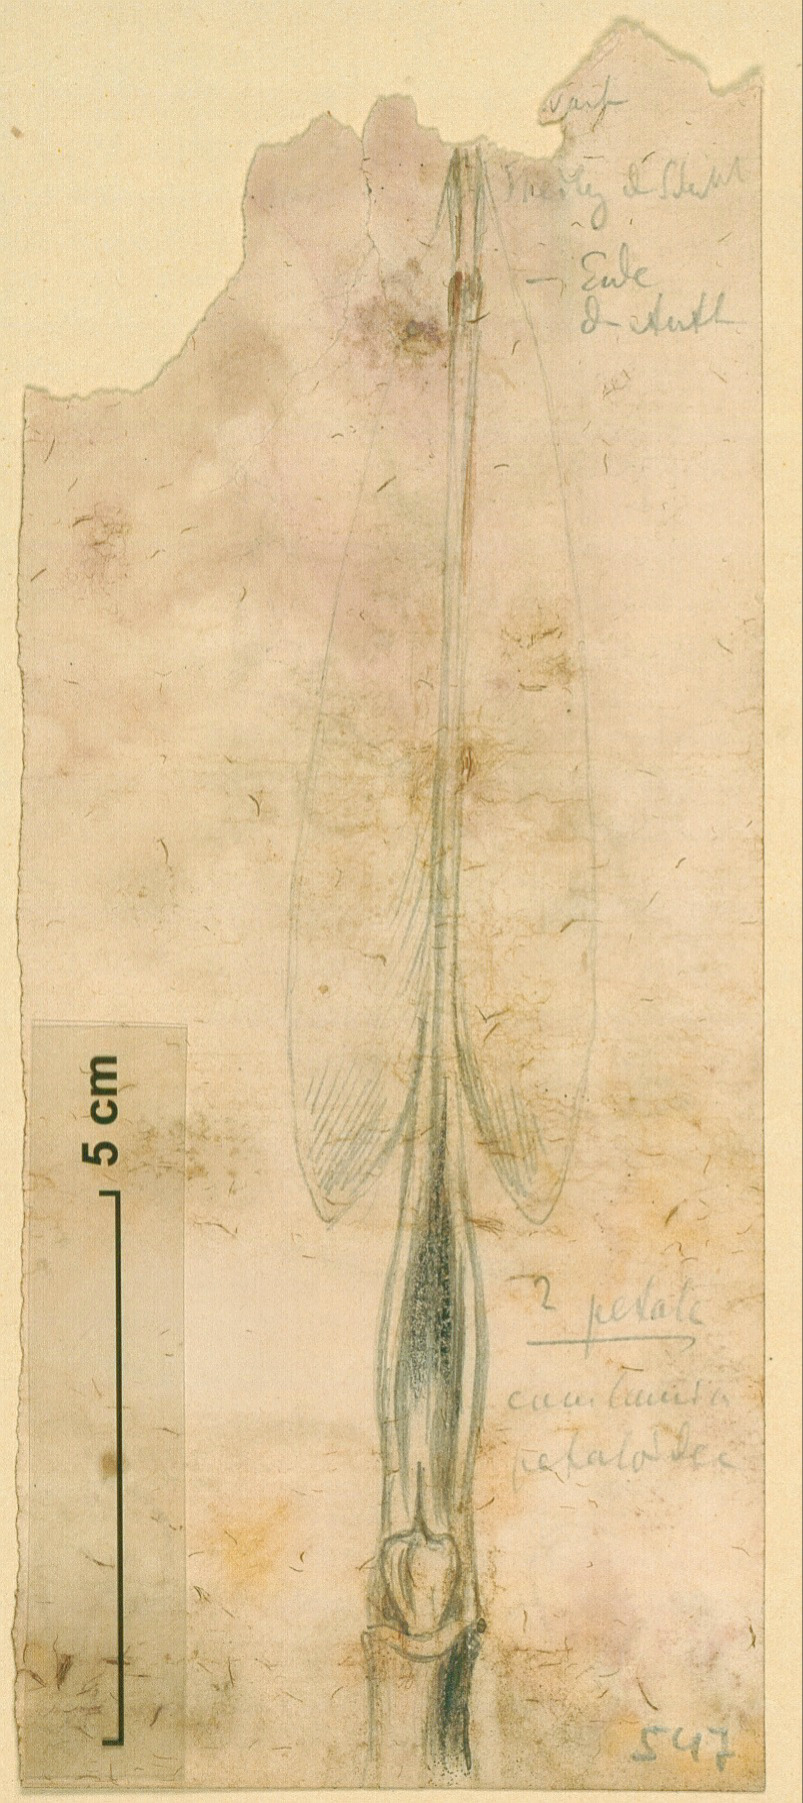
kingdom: Plantae
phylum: Tracheophyta
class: Liliopsida
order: Zingiberales
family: Musaceae
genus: Musa
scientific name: Musa paradisiaca
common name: French plantain
